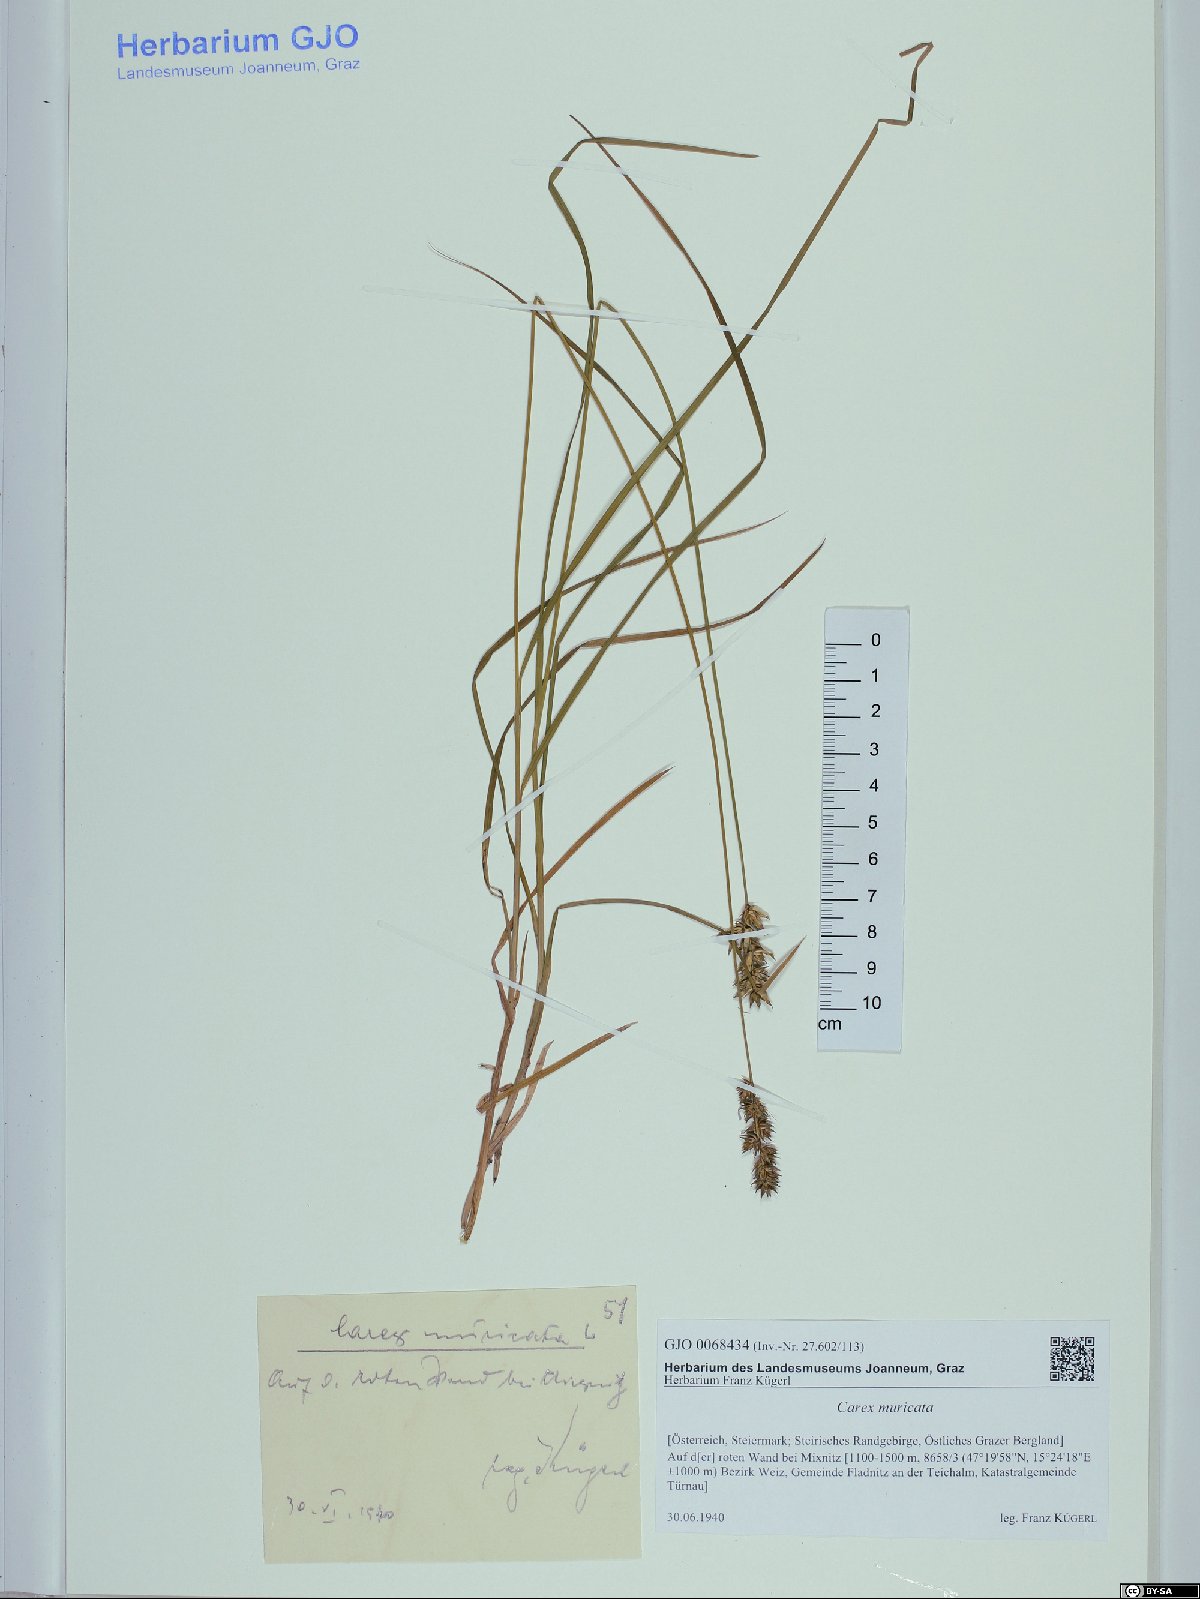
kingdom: Plantae
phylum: Tracheophyta
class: Liliopsida
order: Poales
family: Cyperaceae
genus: Carex
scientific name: Carex muricata
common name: Rough sedge
